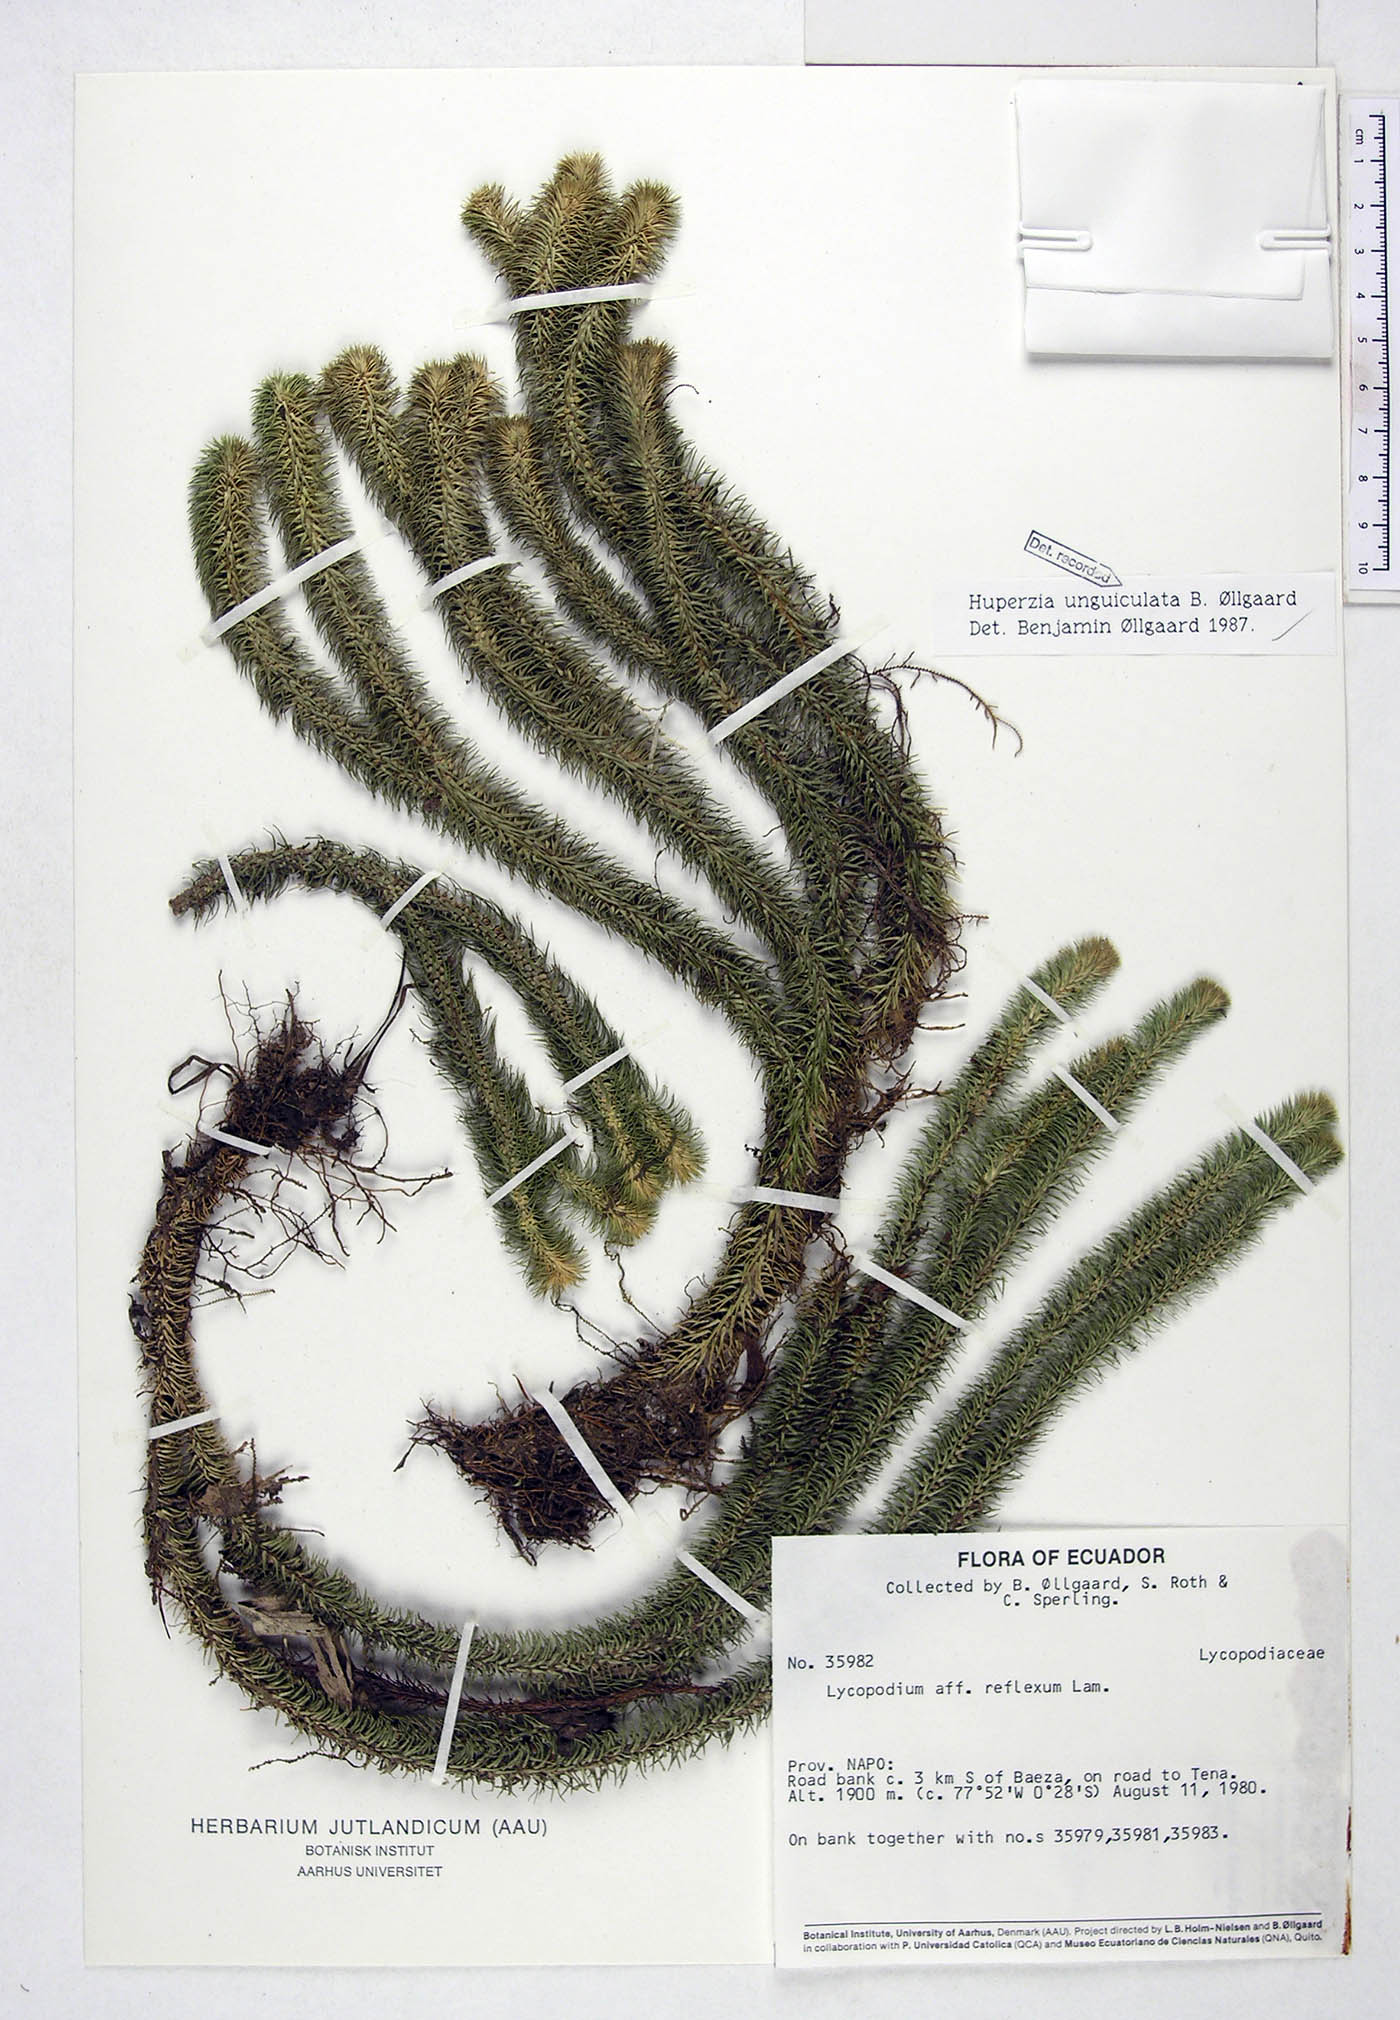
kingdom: Plantae
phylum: Tracheophyta
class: Lycopodiopsida
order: Lycopodiales
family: Lycopodiaceae
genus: Phlegmariurus
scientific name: Phlegmariurus unguiculatus
